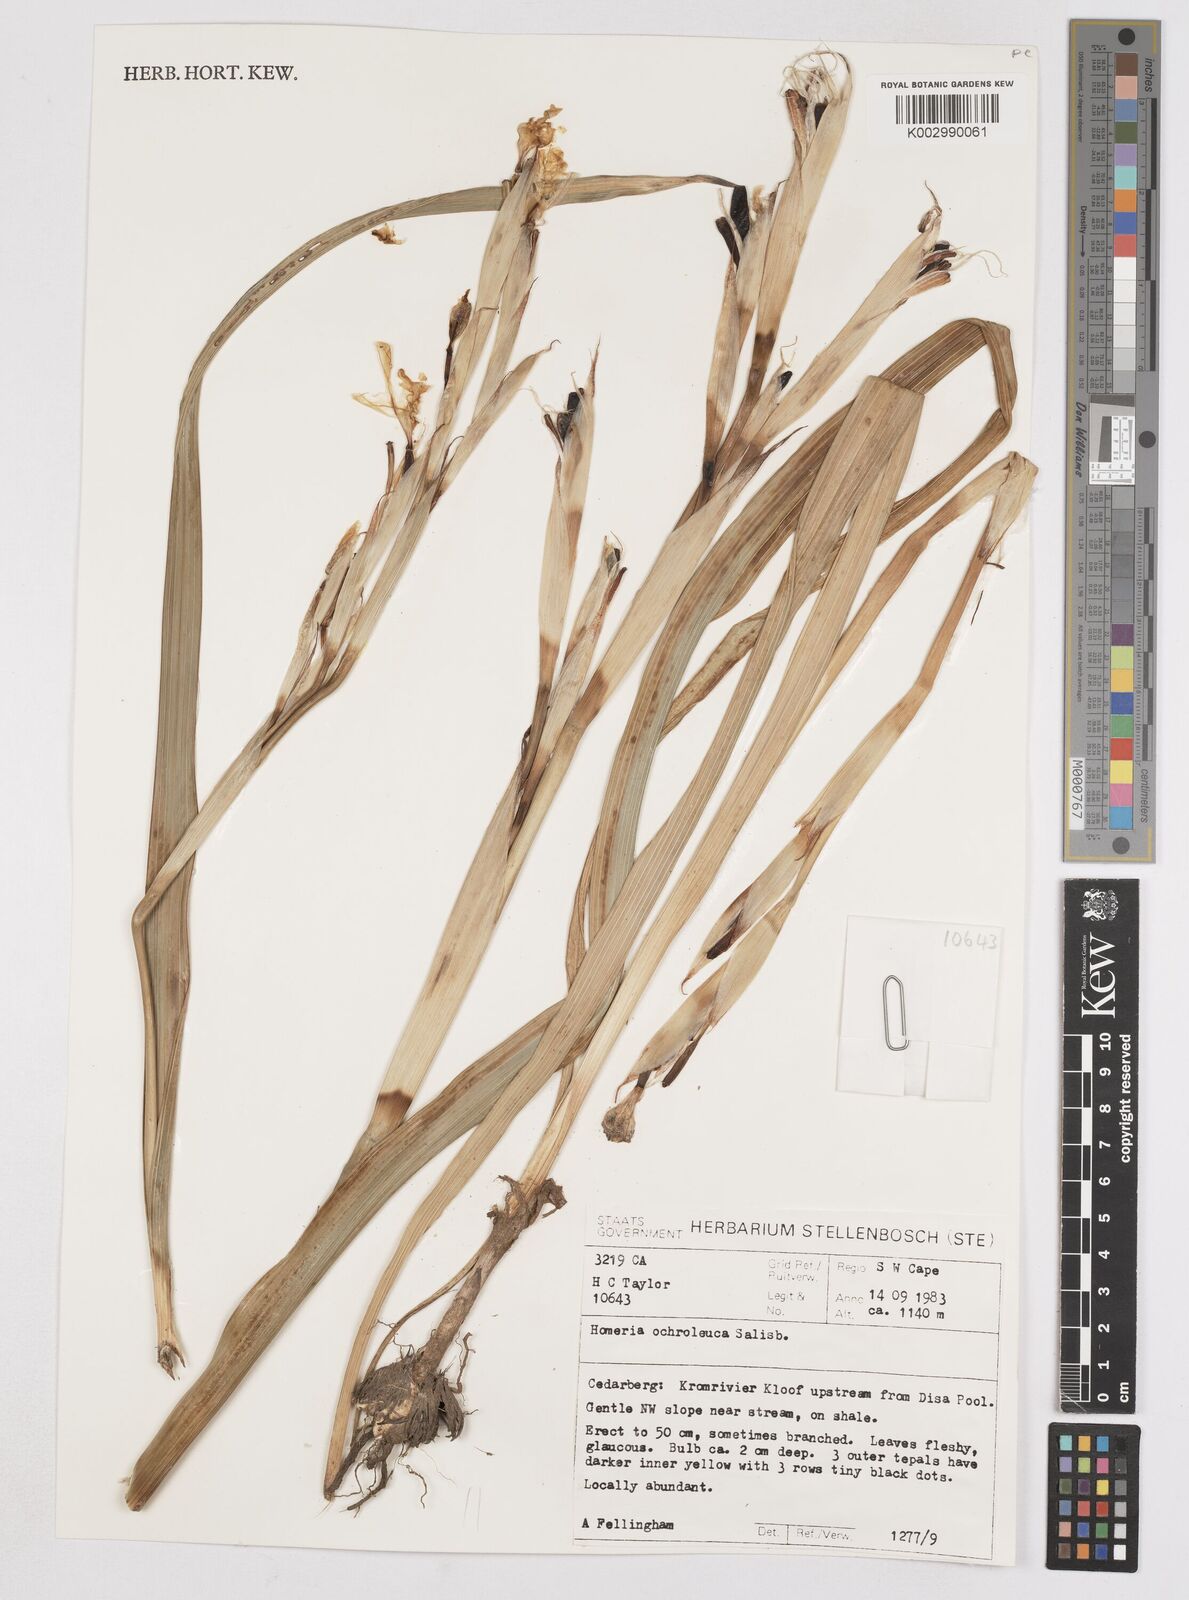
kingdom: Plantae
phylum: Tracheophyta
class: Liliopsida
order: Asparagales
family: Iridaceae
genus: Moraea
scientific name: Moraea ochroleuca
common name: Red tulp
